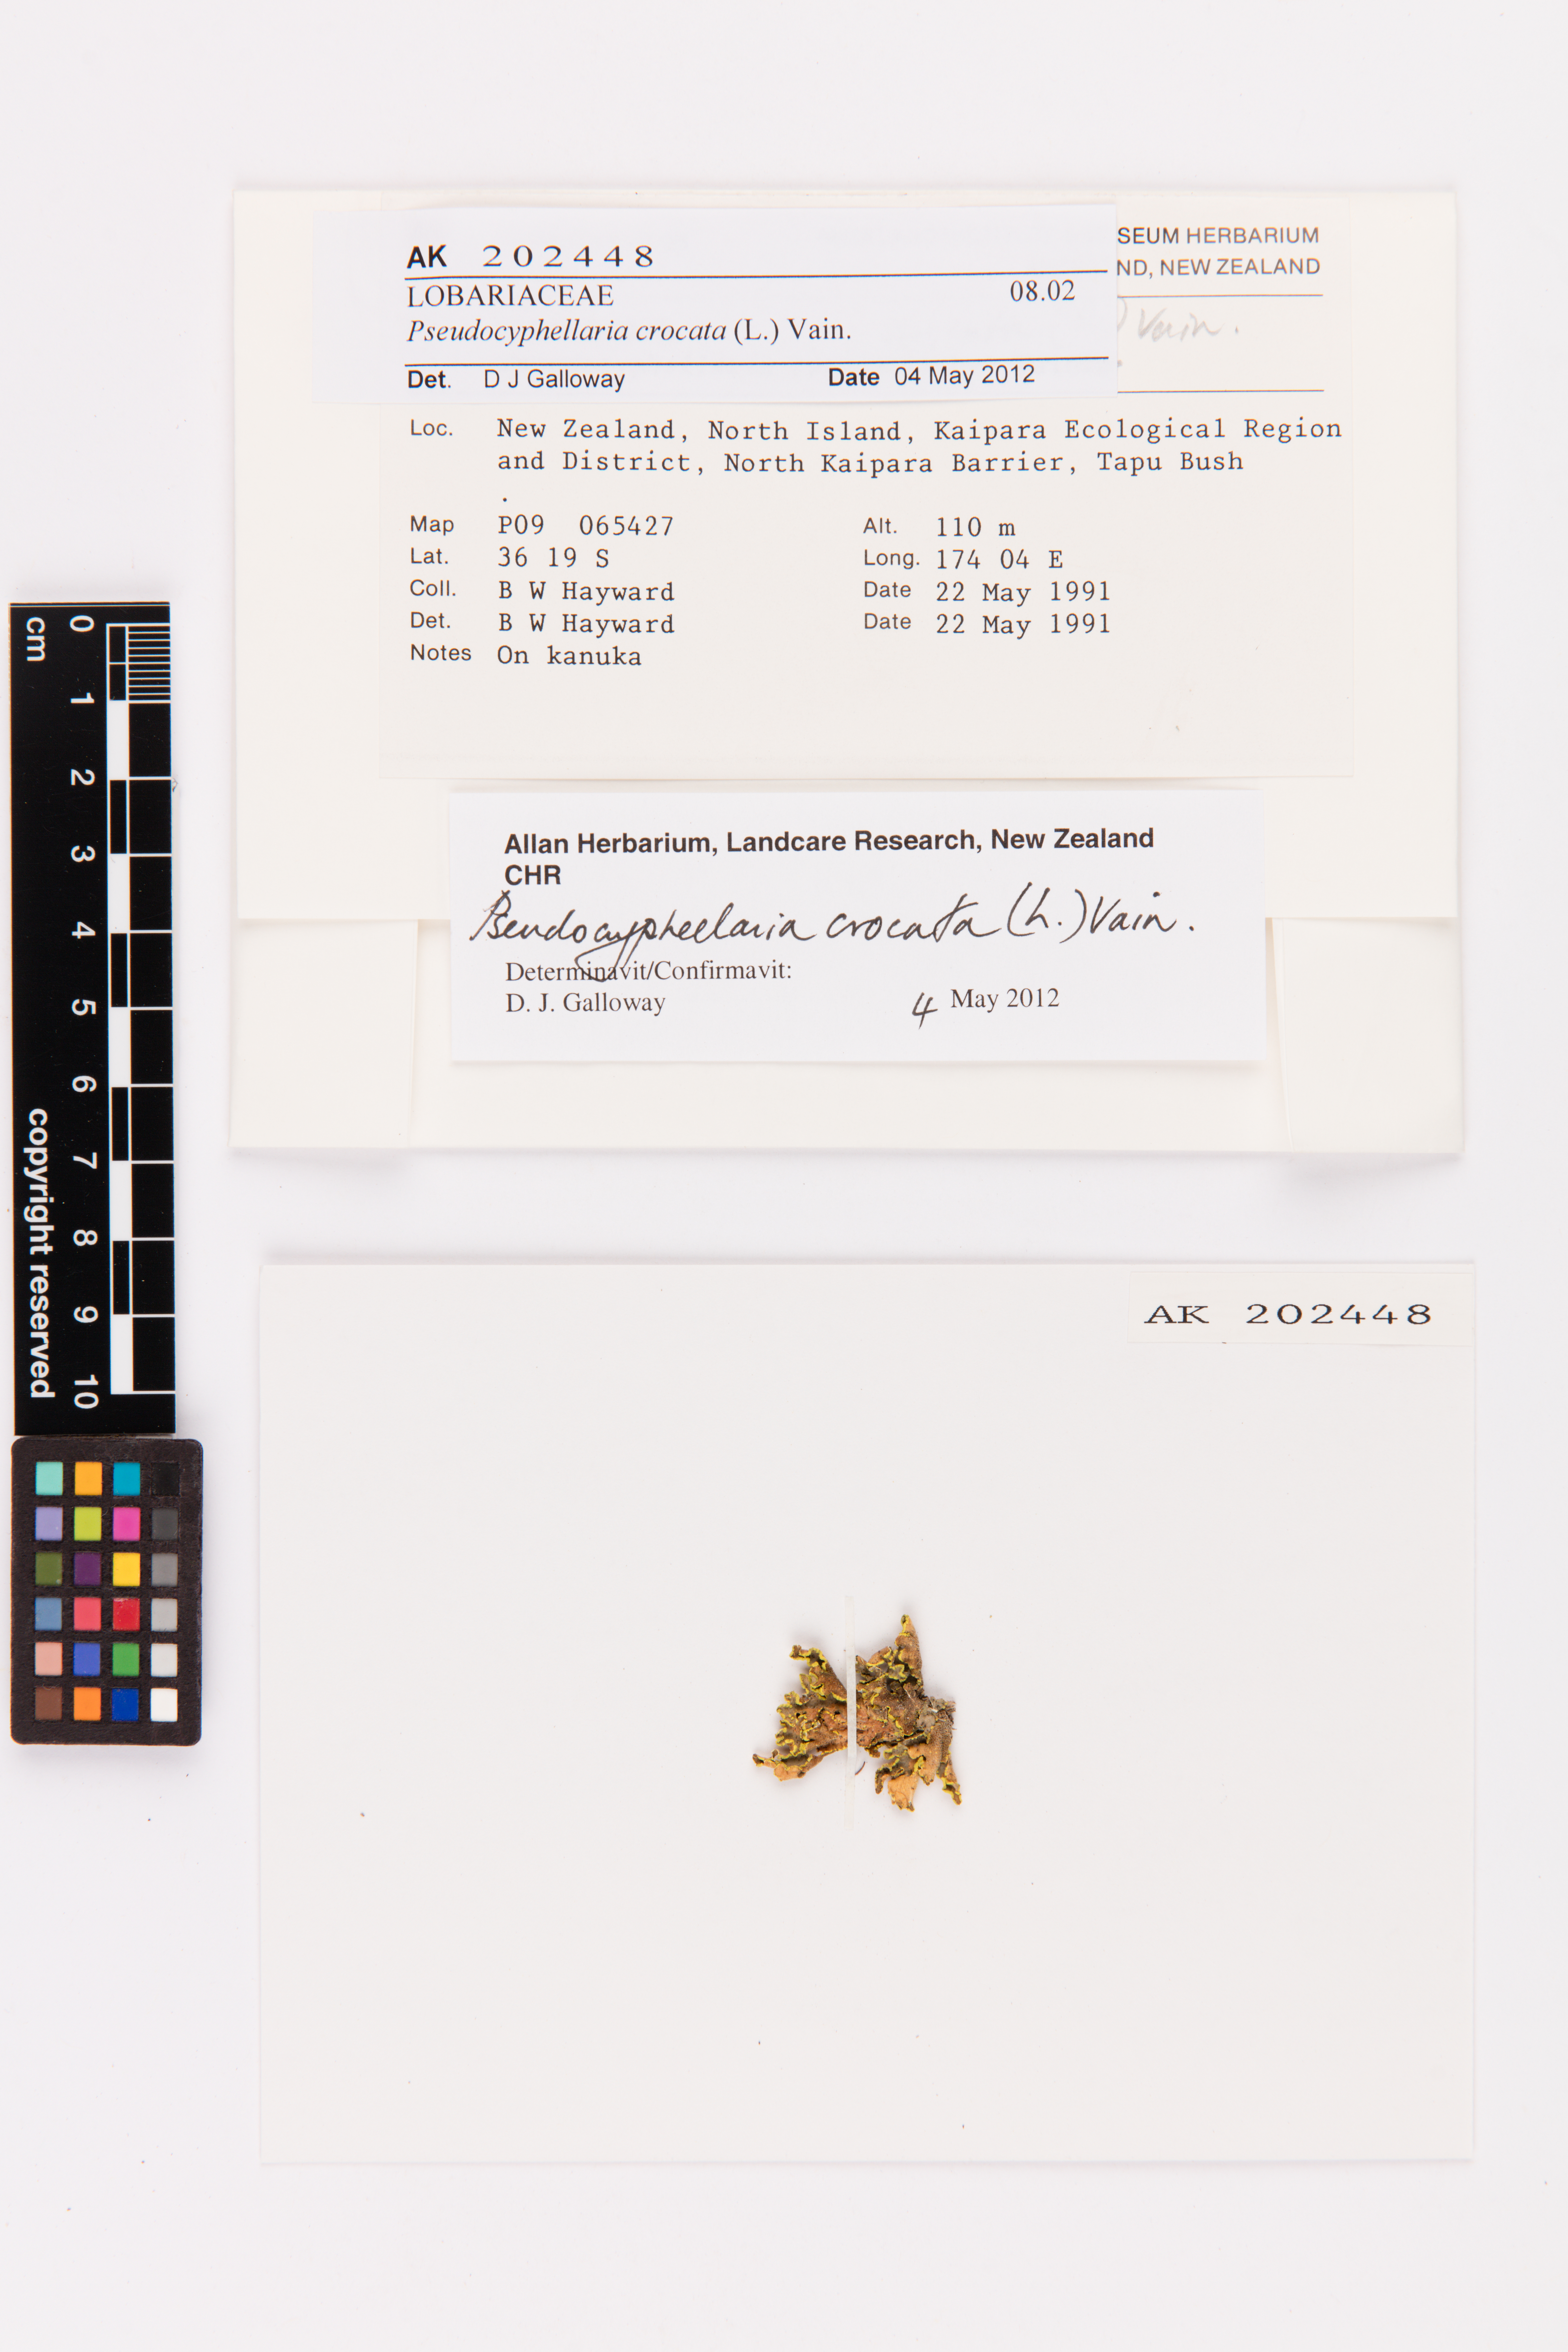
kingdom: Fungi
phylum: Ascomycota
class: Lecanoromycetes
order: Peltigerales
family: Lobariaceae
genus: Pseudocyphellaria
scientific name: Pseudocyphellaria crocata
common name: Golden specklebelly
